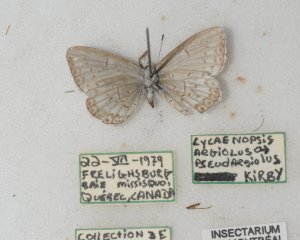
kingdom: Animalia
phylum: Arthropoda
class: Insecta
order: Lepidoptera
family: Lycaenidae
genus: Cyaniris
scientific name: Cyaniris neglecta
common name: Summer Azure
